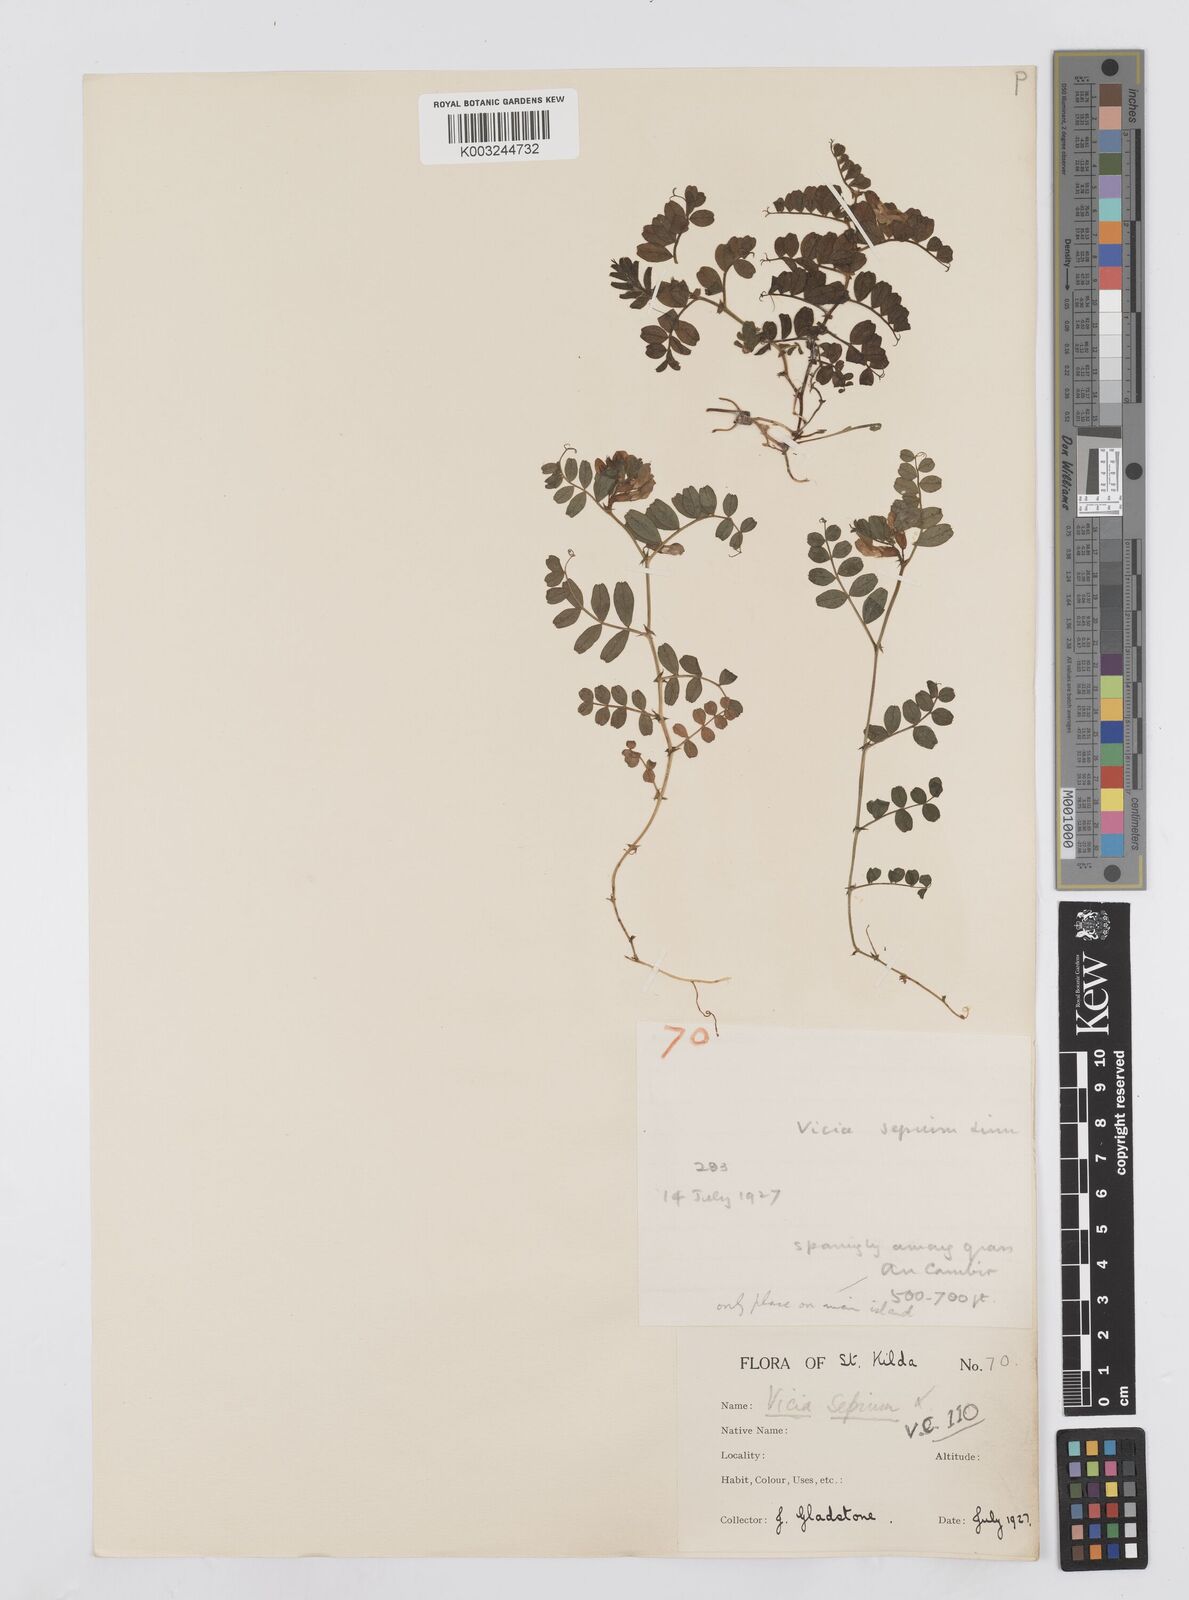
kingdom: Plantae
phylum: Tracheophyta
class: Magnoliopsida
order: Fabales
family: Fabaceae
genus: Vicia
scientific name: Vicia sepium
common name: Bush vetch
